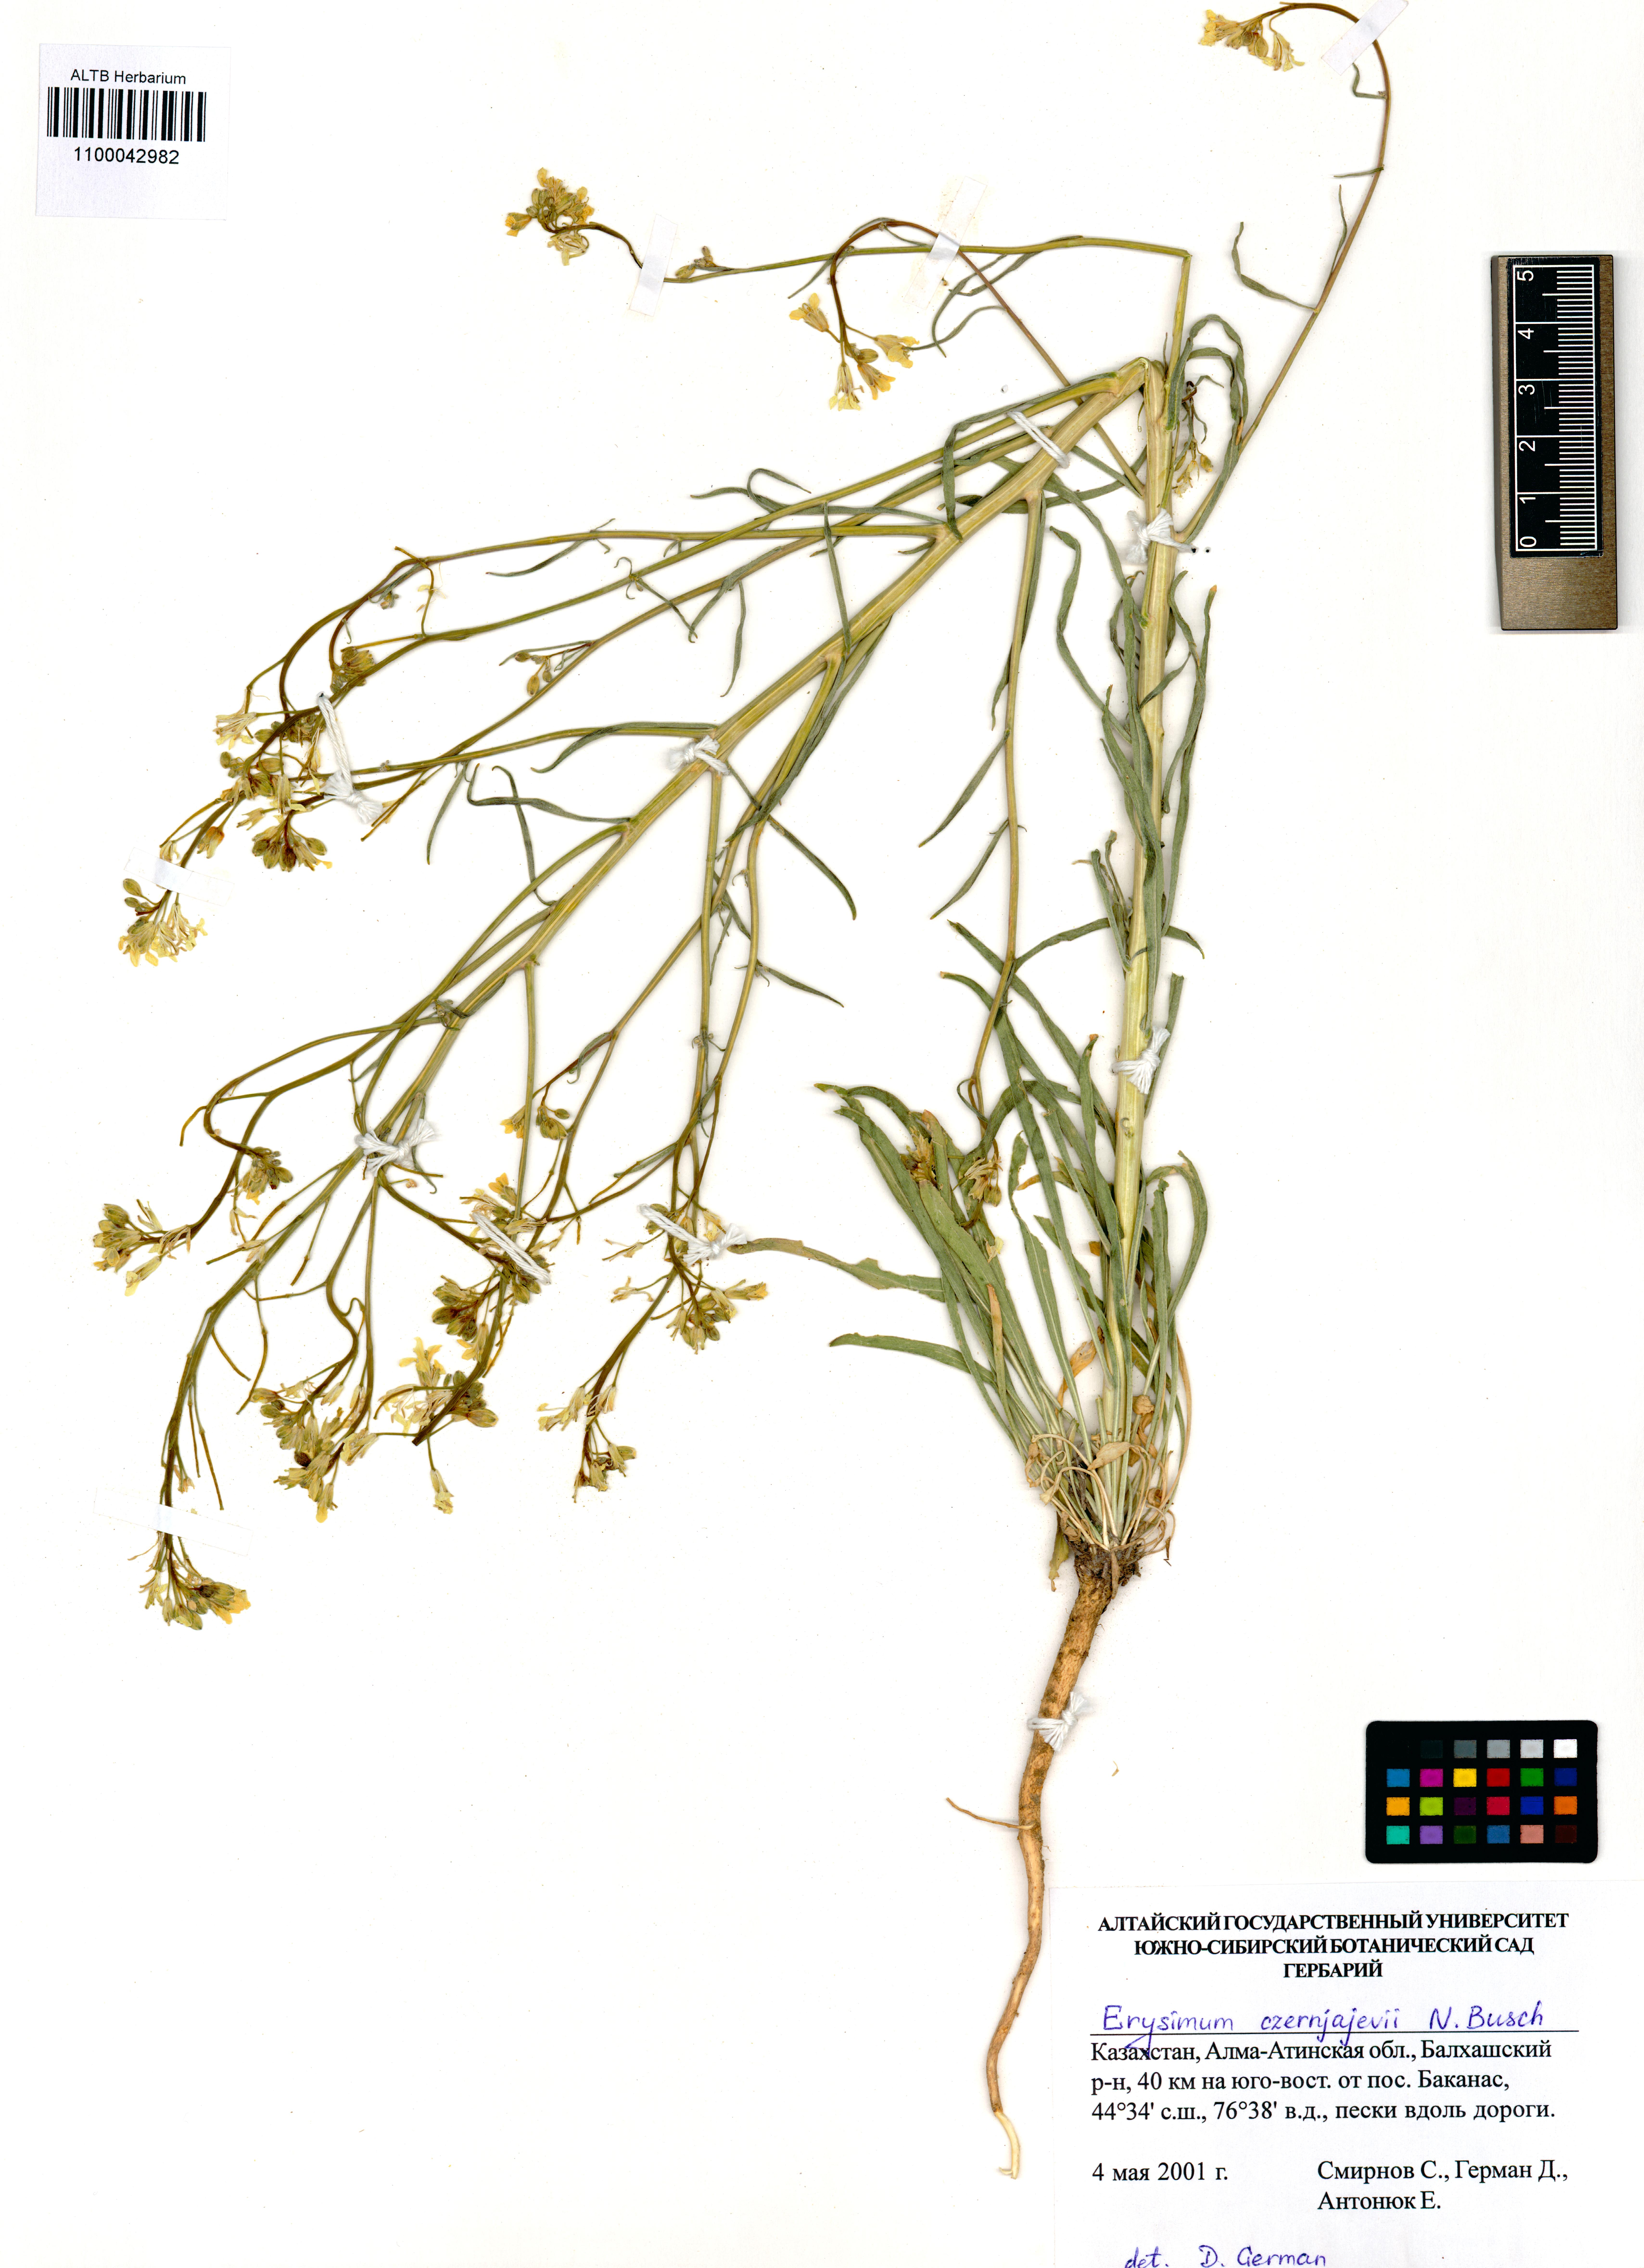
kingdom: Plantae
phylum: Tracheophyta
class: Magnoliopsida
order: Brassicales
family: Brassicaceae
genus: Erysimum
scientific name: Erysimum czernjajevii
